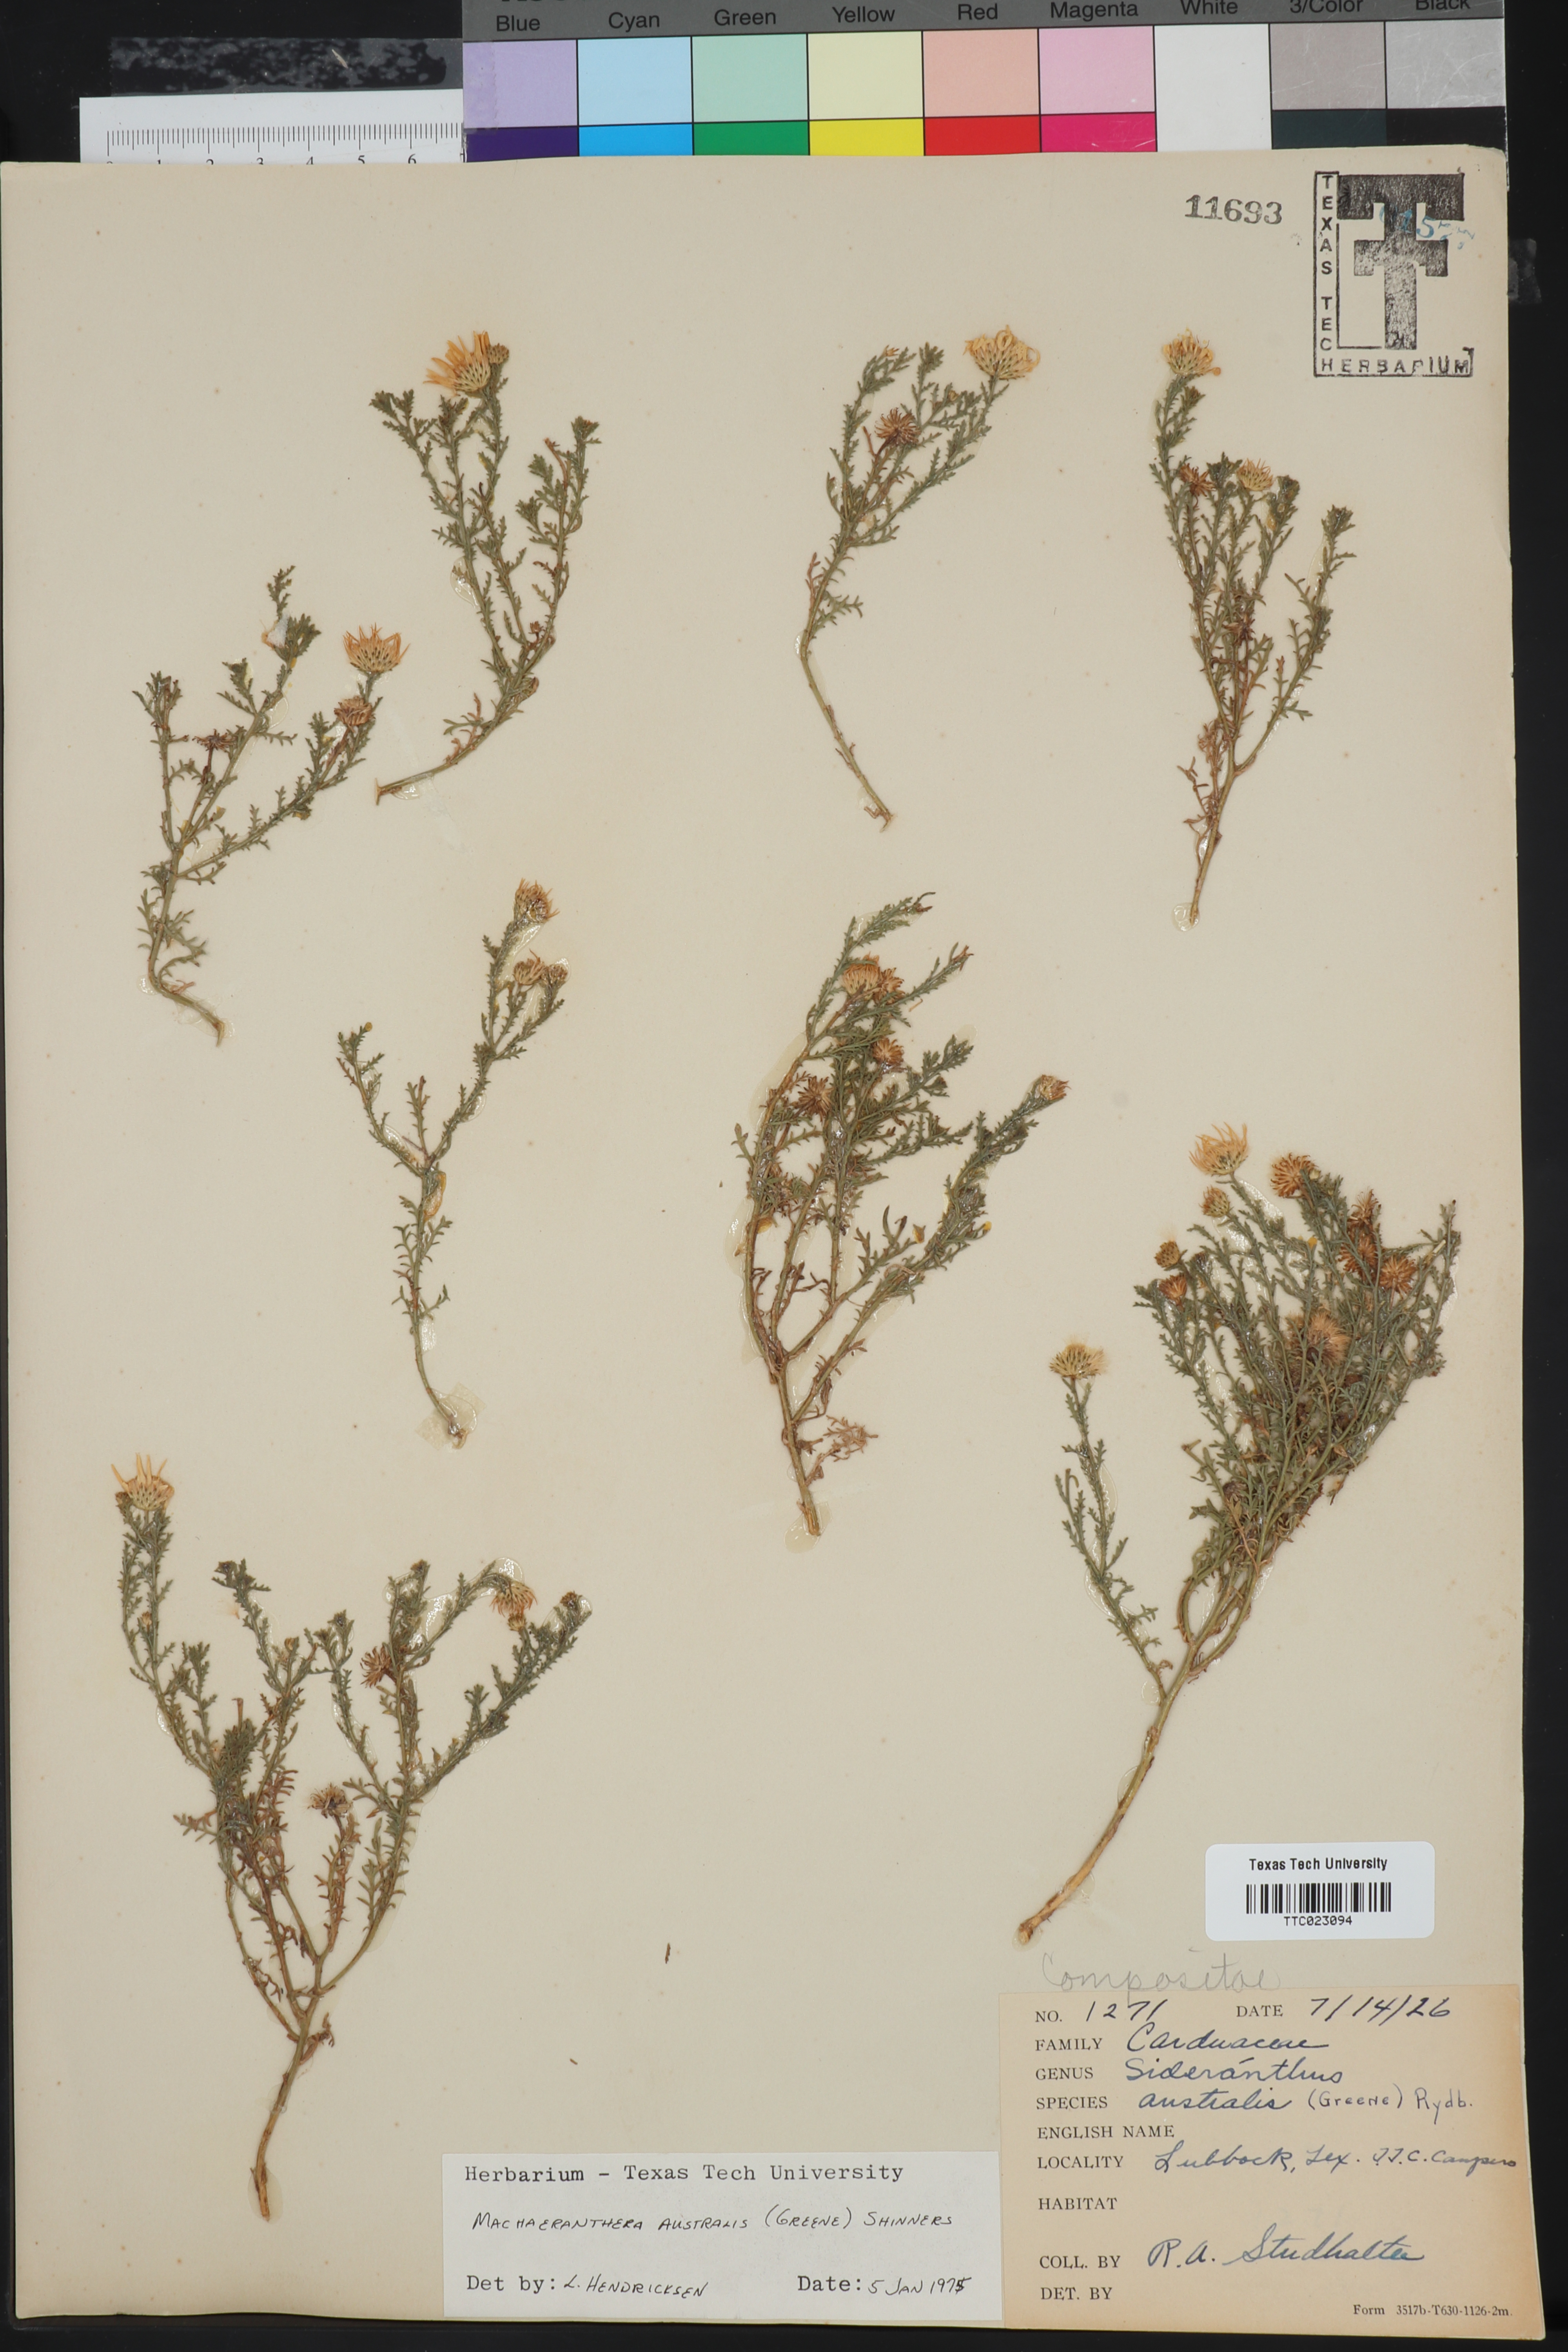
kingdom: Plantae
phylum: Tracheophyta
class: Magnoliopsida
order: Asterales
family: Asteraceae
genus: Xanthisma
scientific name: Xanthisma spinulosum
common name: Spiny goldenweed
